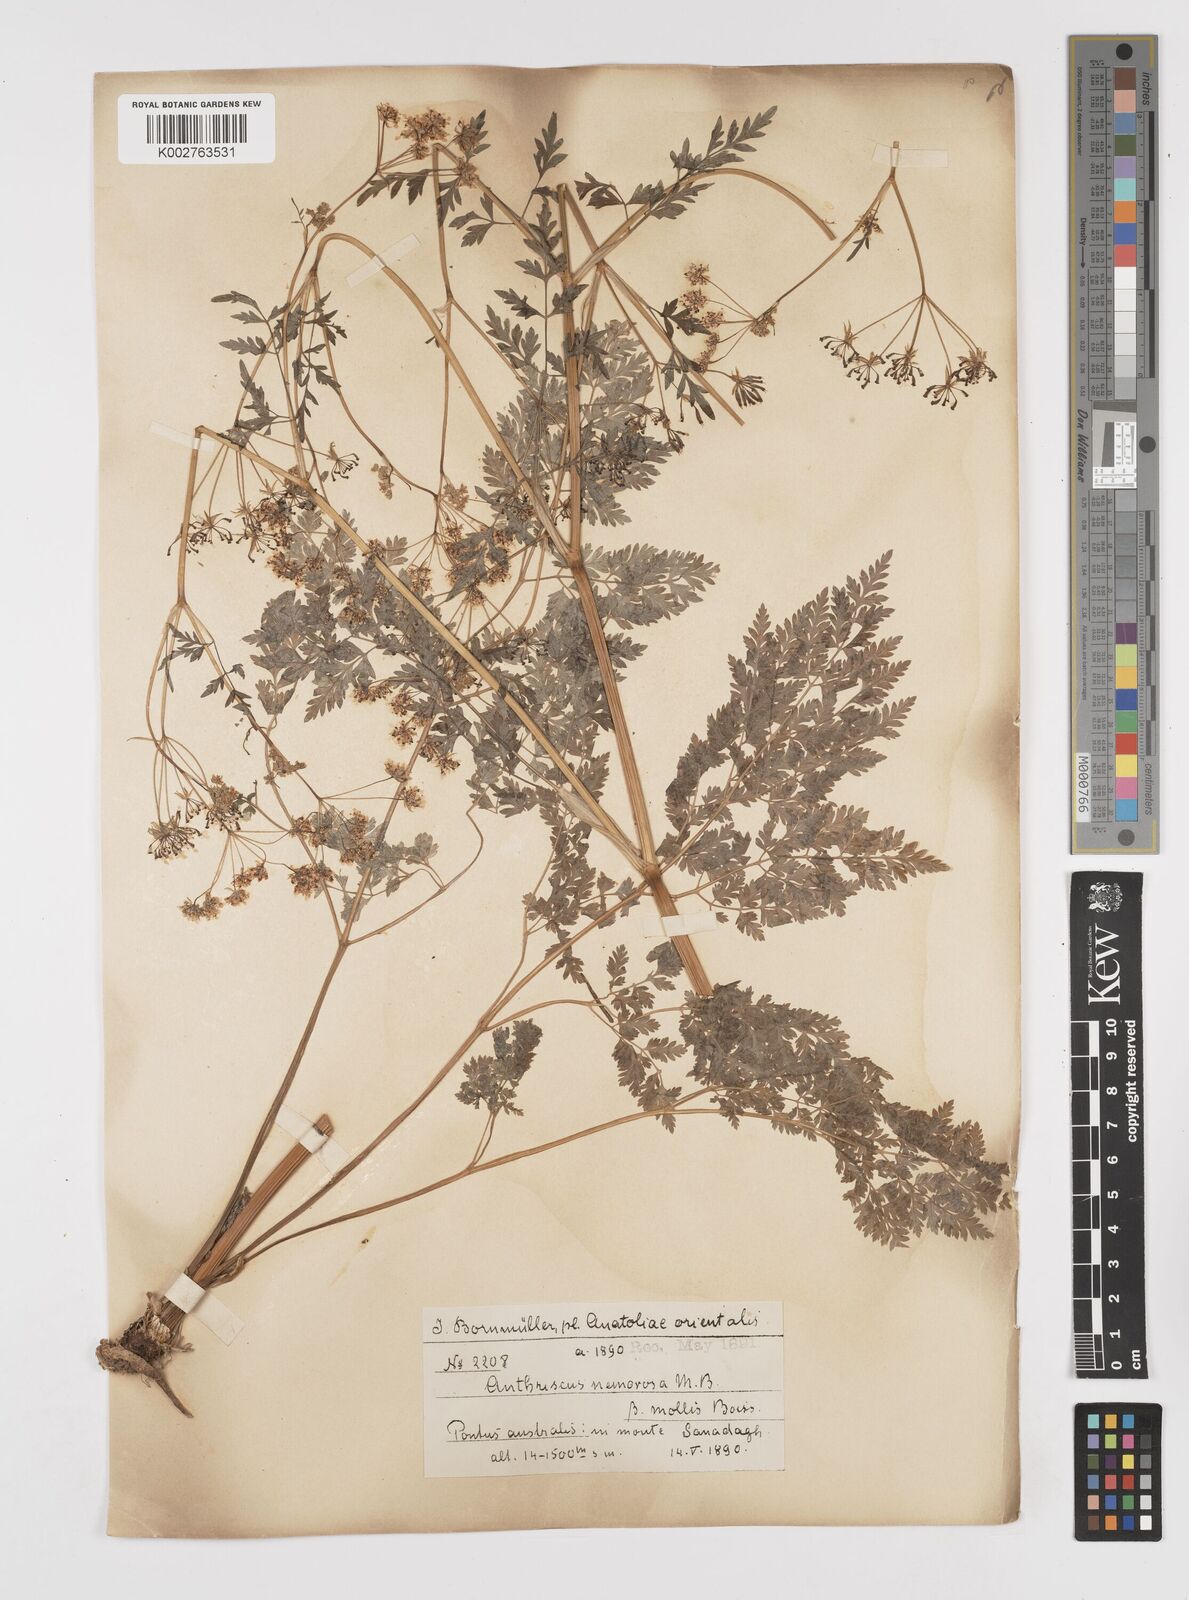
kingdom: Plantae
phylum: Tracheophyta
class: Magnoliopsida
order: Apiales
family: Apiaceae
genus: Anthriscus
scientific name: Anthriscus sylvestris
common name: Cow parsley
